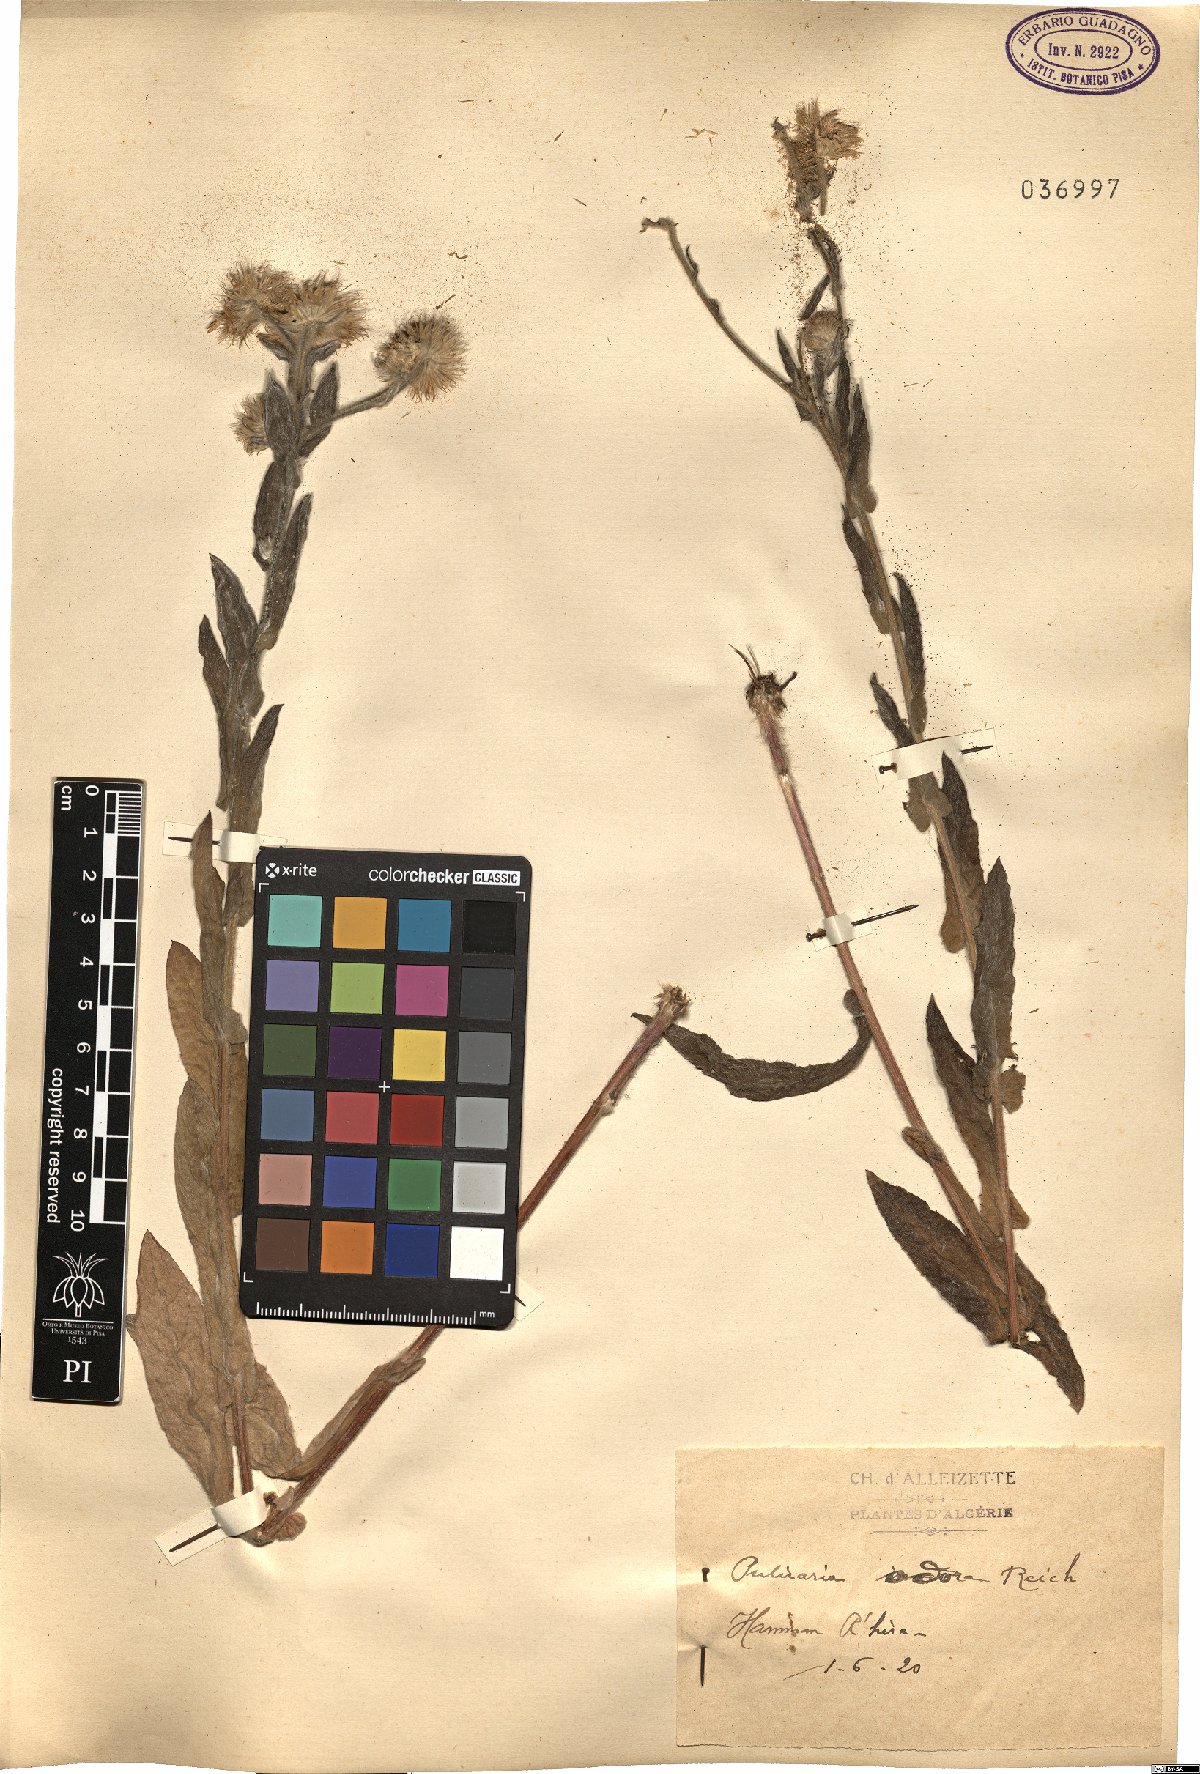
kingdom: Plantae
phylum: Tracheophyta
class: Magnoliopsida
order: Asterales
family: Asteraceae
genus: Pulicaria
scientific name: Pulicaria odora
